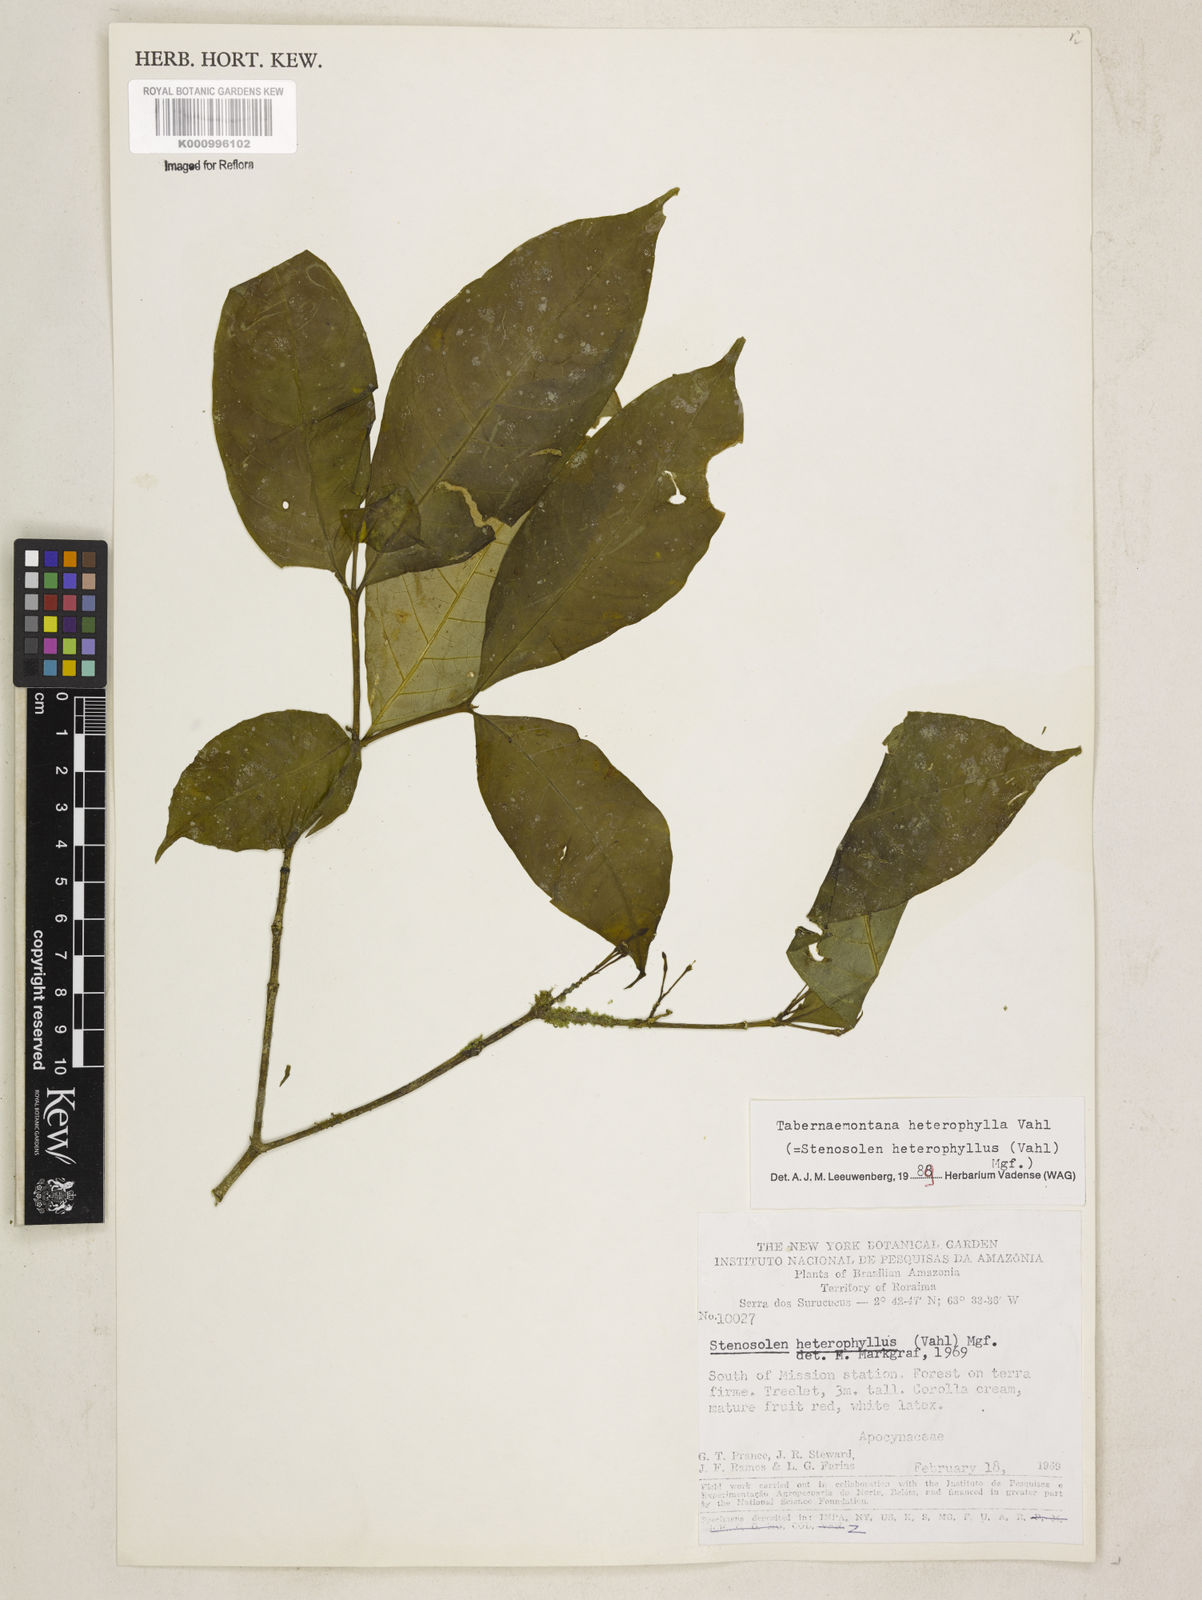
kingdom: Plantae
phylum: Tracheophyta
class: Magnoliopsida
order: Gentianales
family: Apocynaceae
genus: Tabernaemontana
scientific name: Tabernaemontana heterophylla
